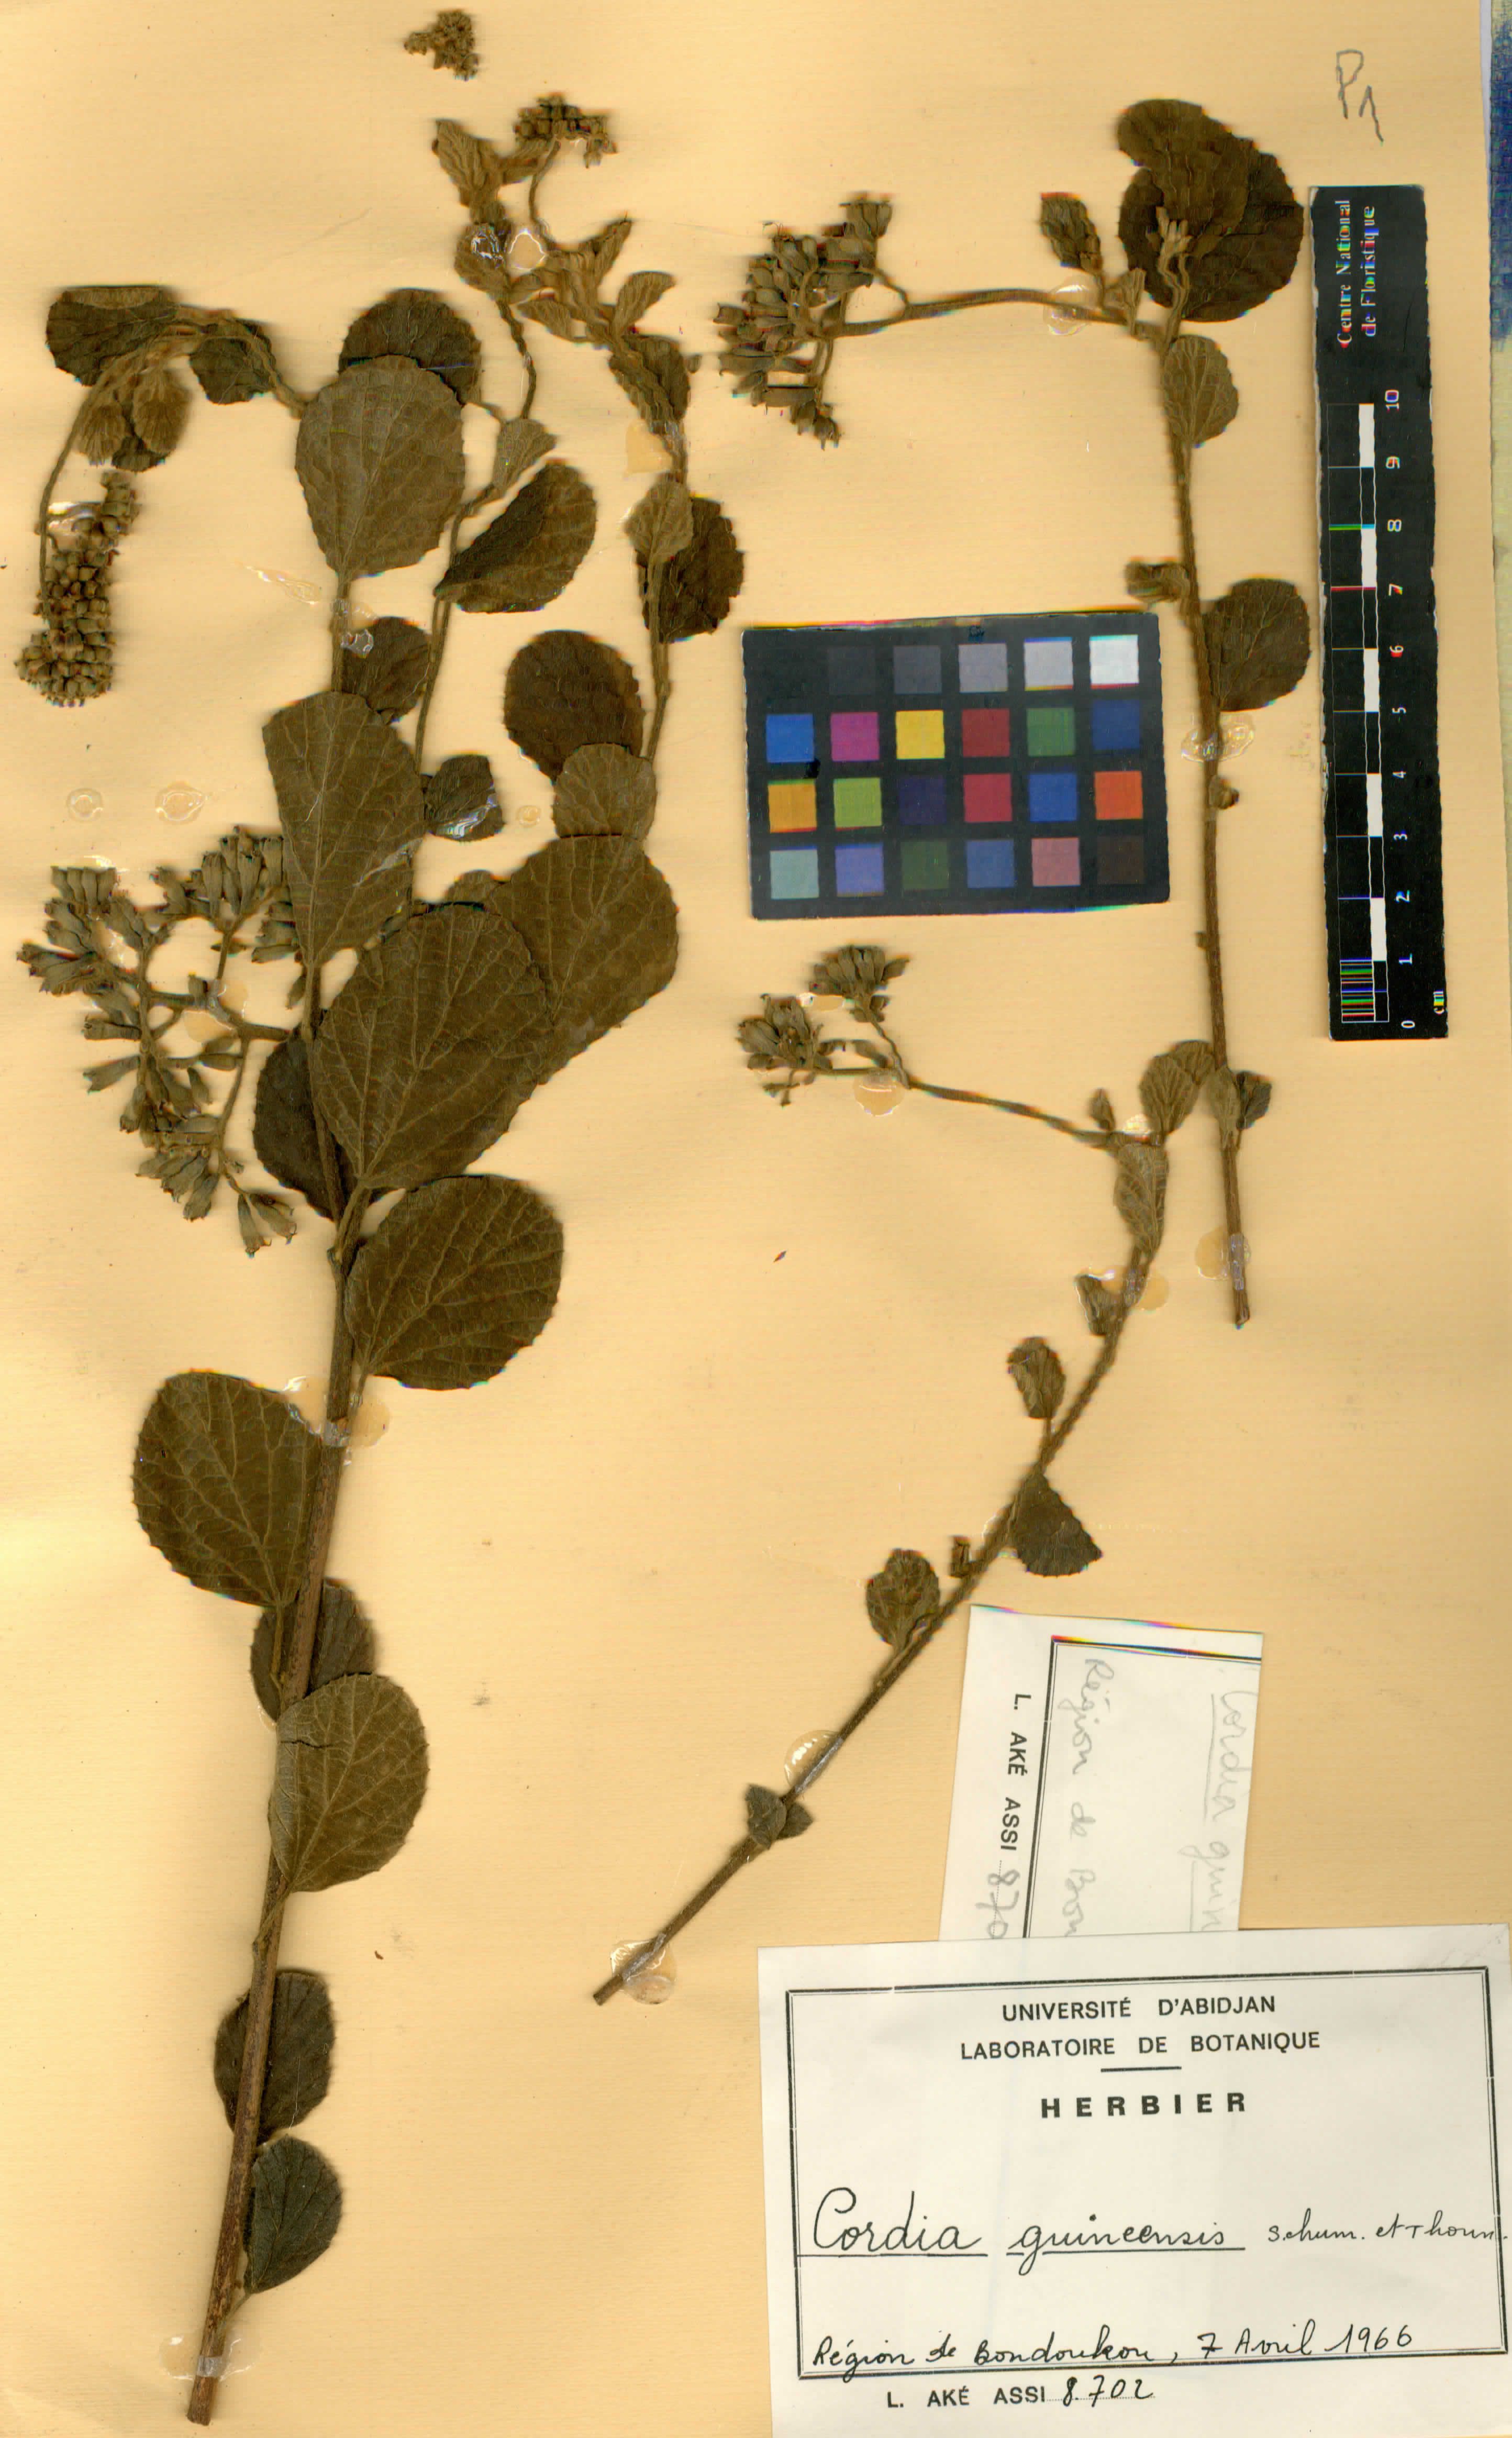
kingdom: Plantae
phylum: Tracheophyta
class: Magnoliopsida
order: Boraginales
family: Cordiaceae
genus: Cordia
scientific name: Cordia guineensis
